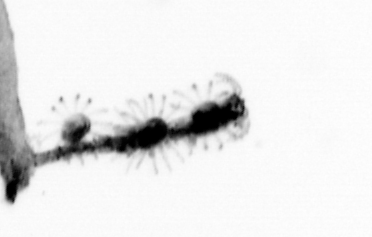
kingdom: Animalia
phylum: Cnidaria
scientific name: Cnidaria
